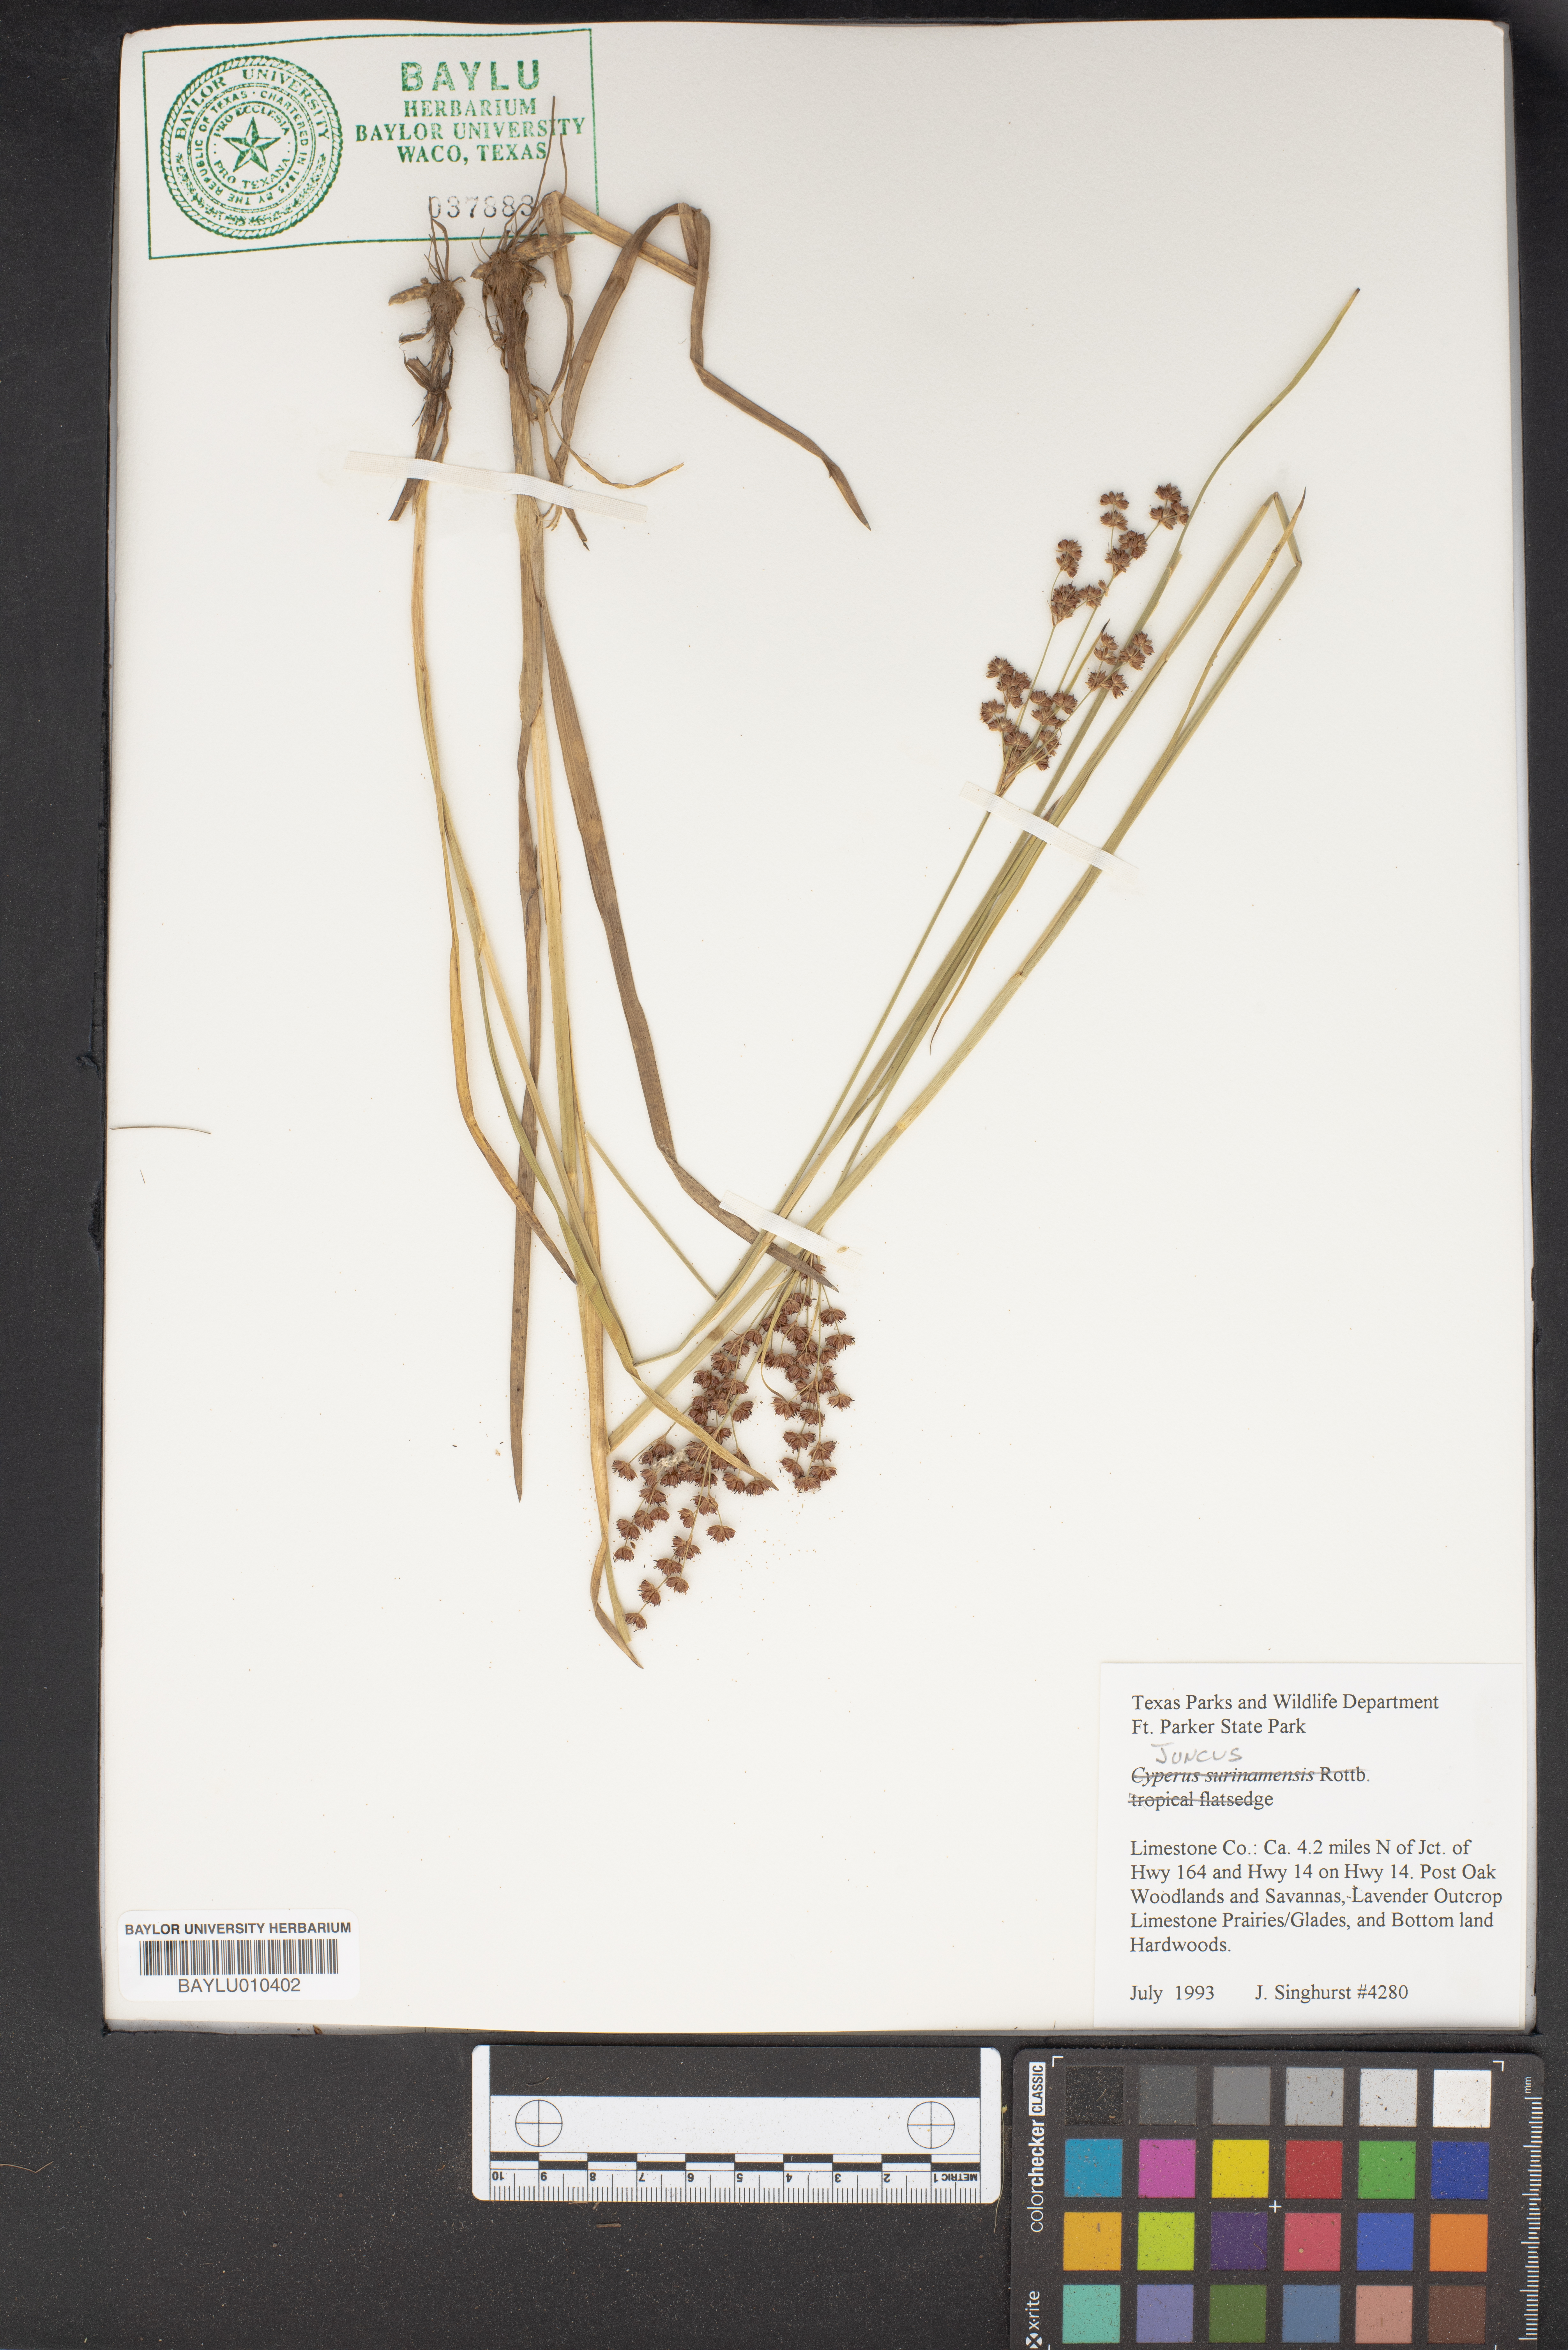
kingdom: Plantae
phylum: Tracheophyta
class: Liliopsida
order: Poales
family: Juncaceae
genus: Juncus
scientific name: Juncus
